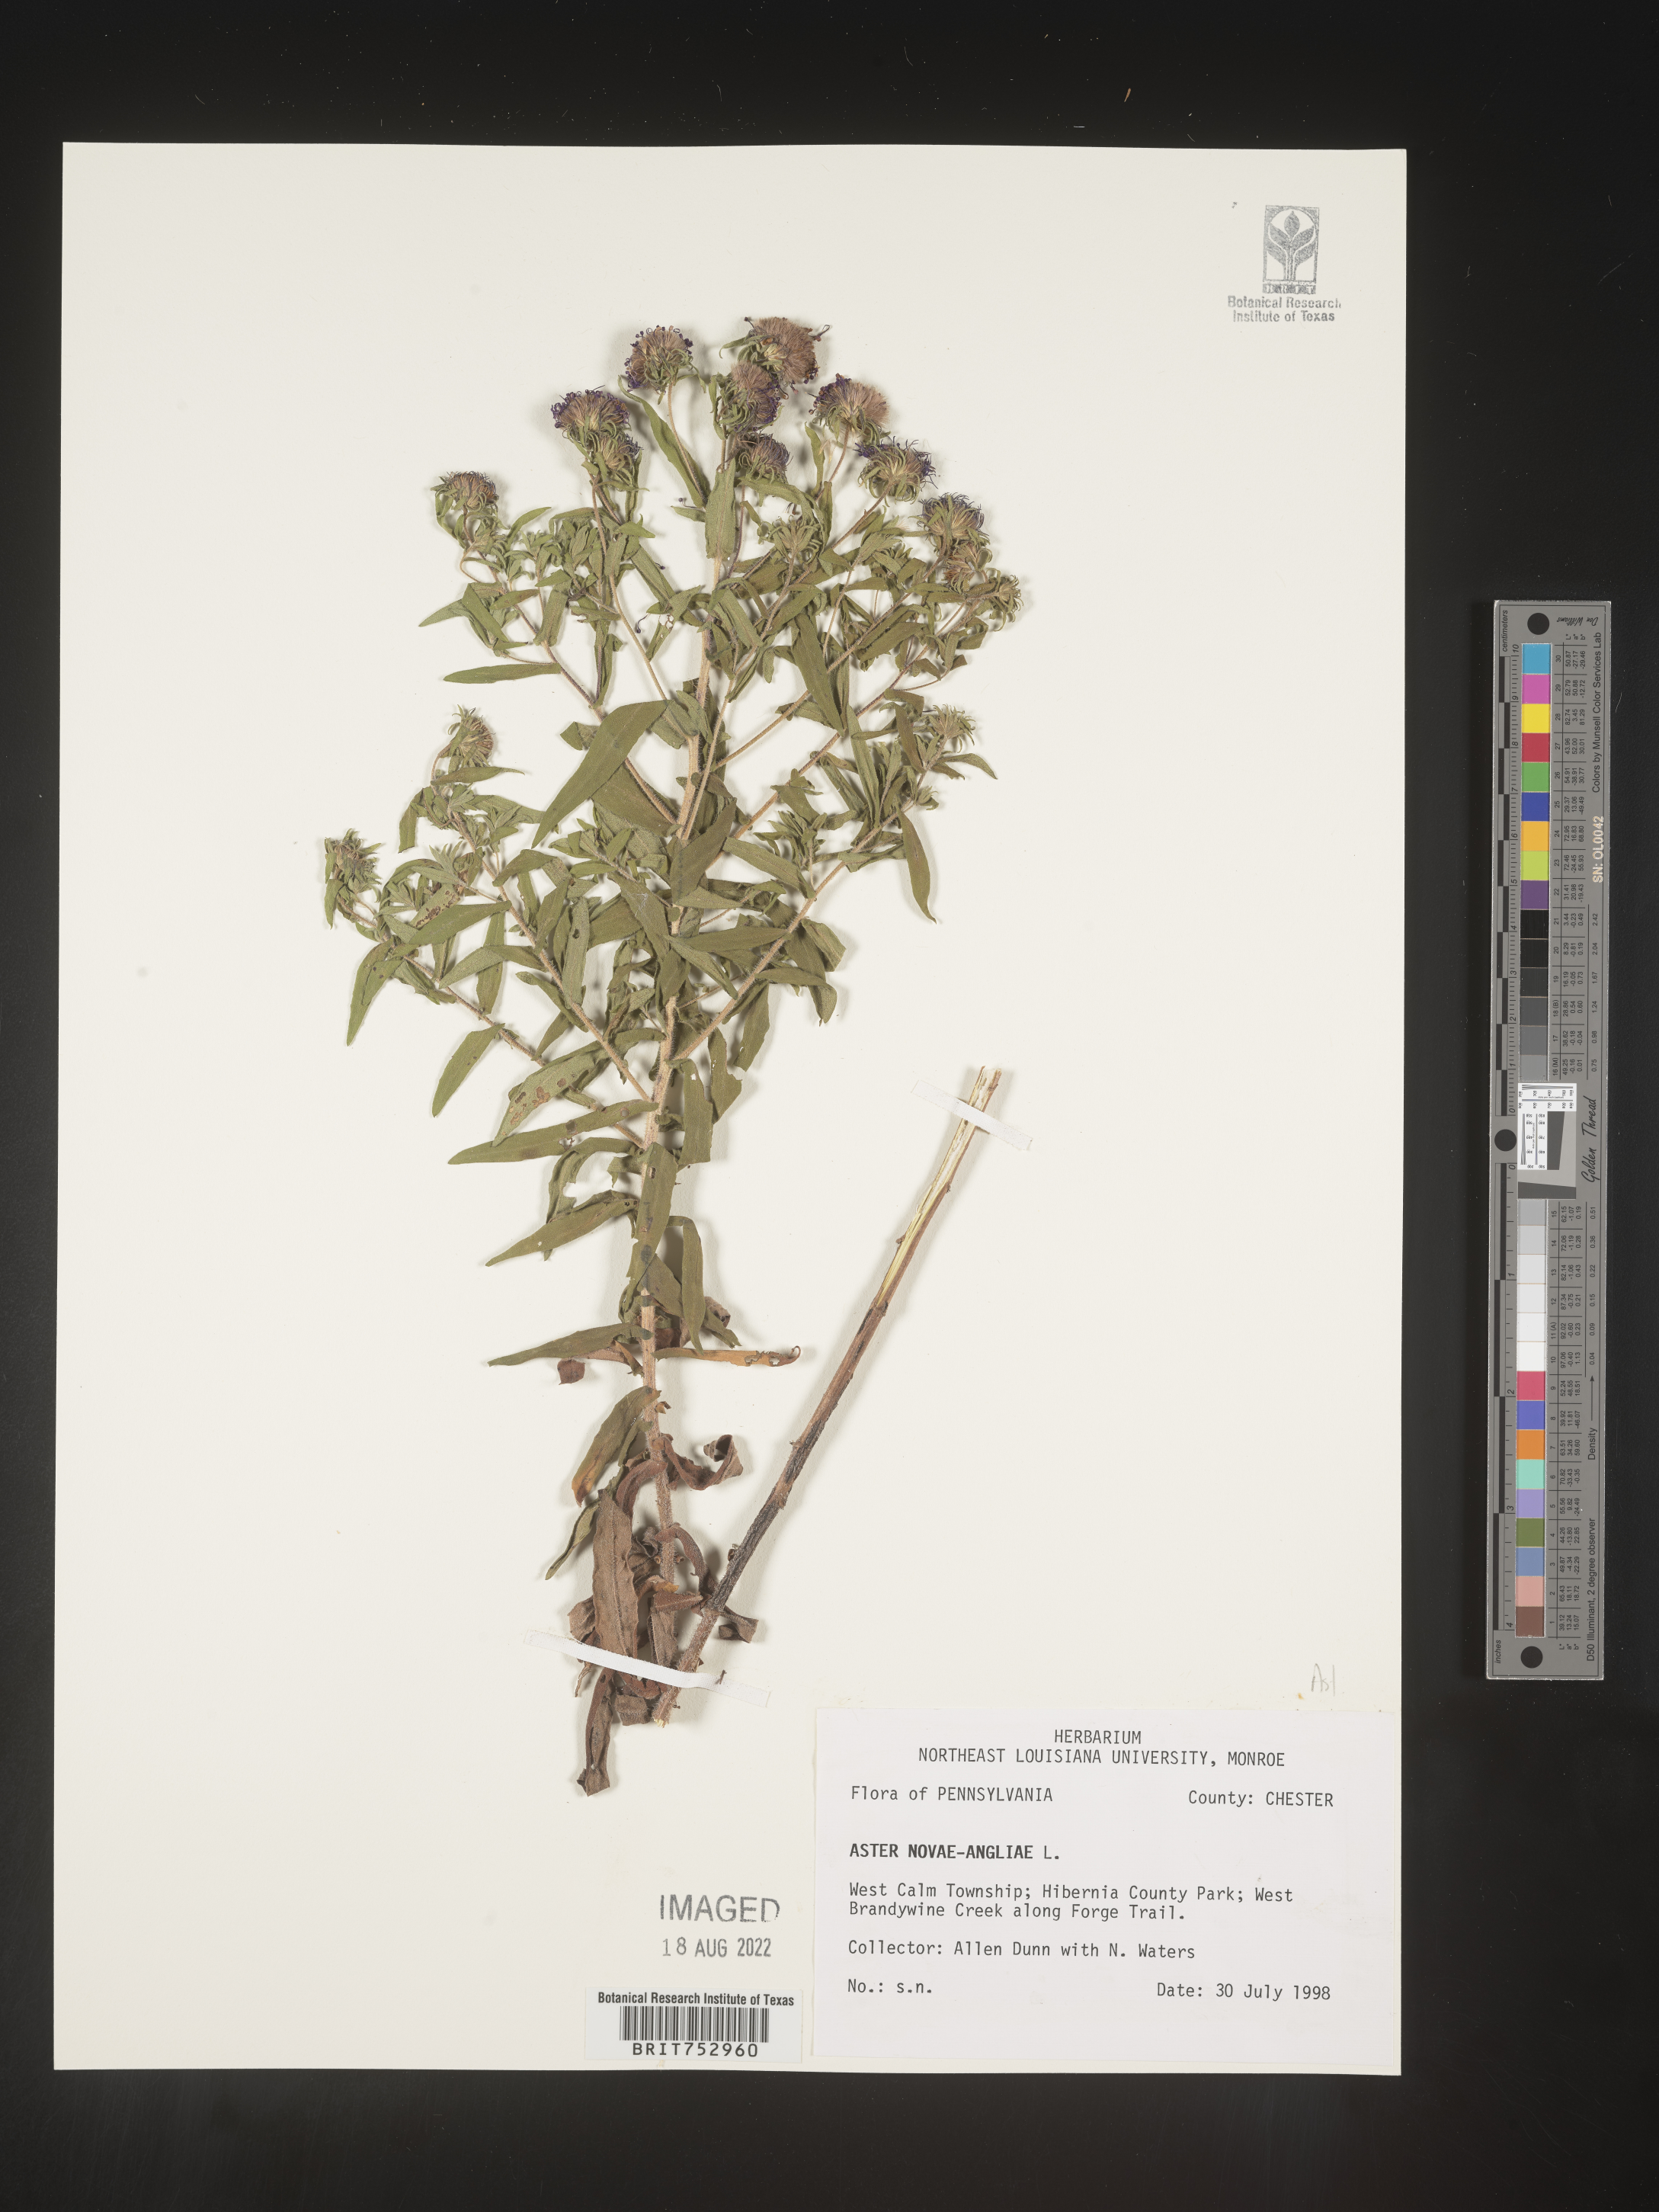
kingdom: Plantae
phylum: Tracheophyta
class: Magnoliopsida
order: Asterales
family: Asteraceae
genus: Symphyotrichum
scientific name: Symphyotrichum novae-angliae
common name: Michaelmas daisy
